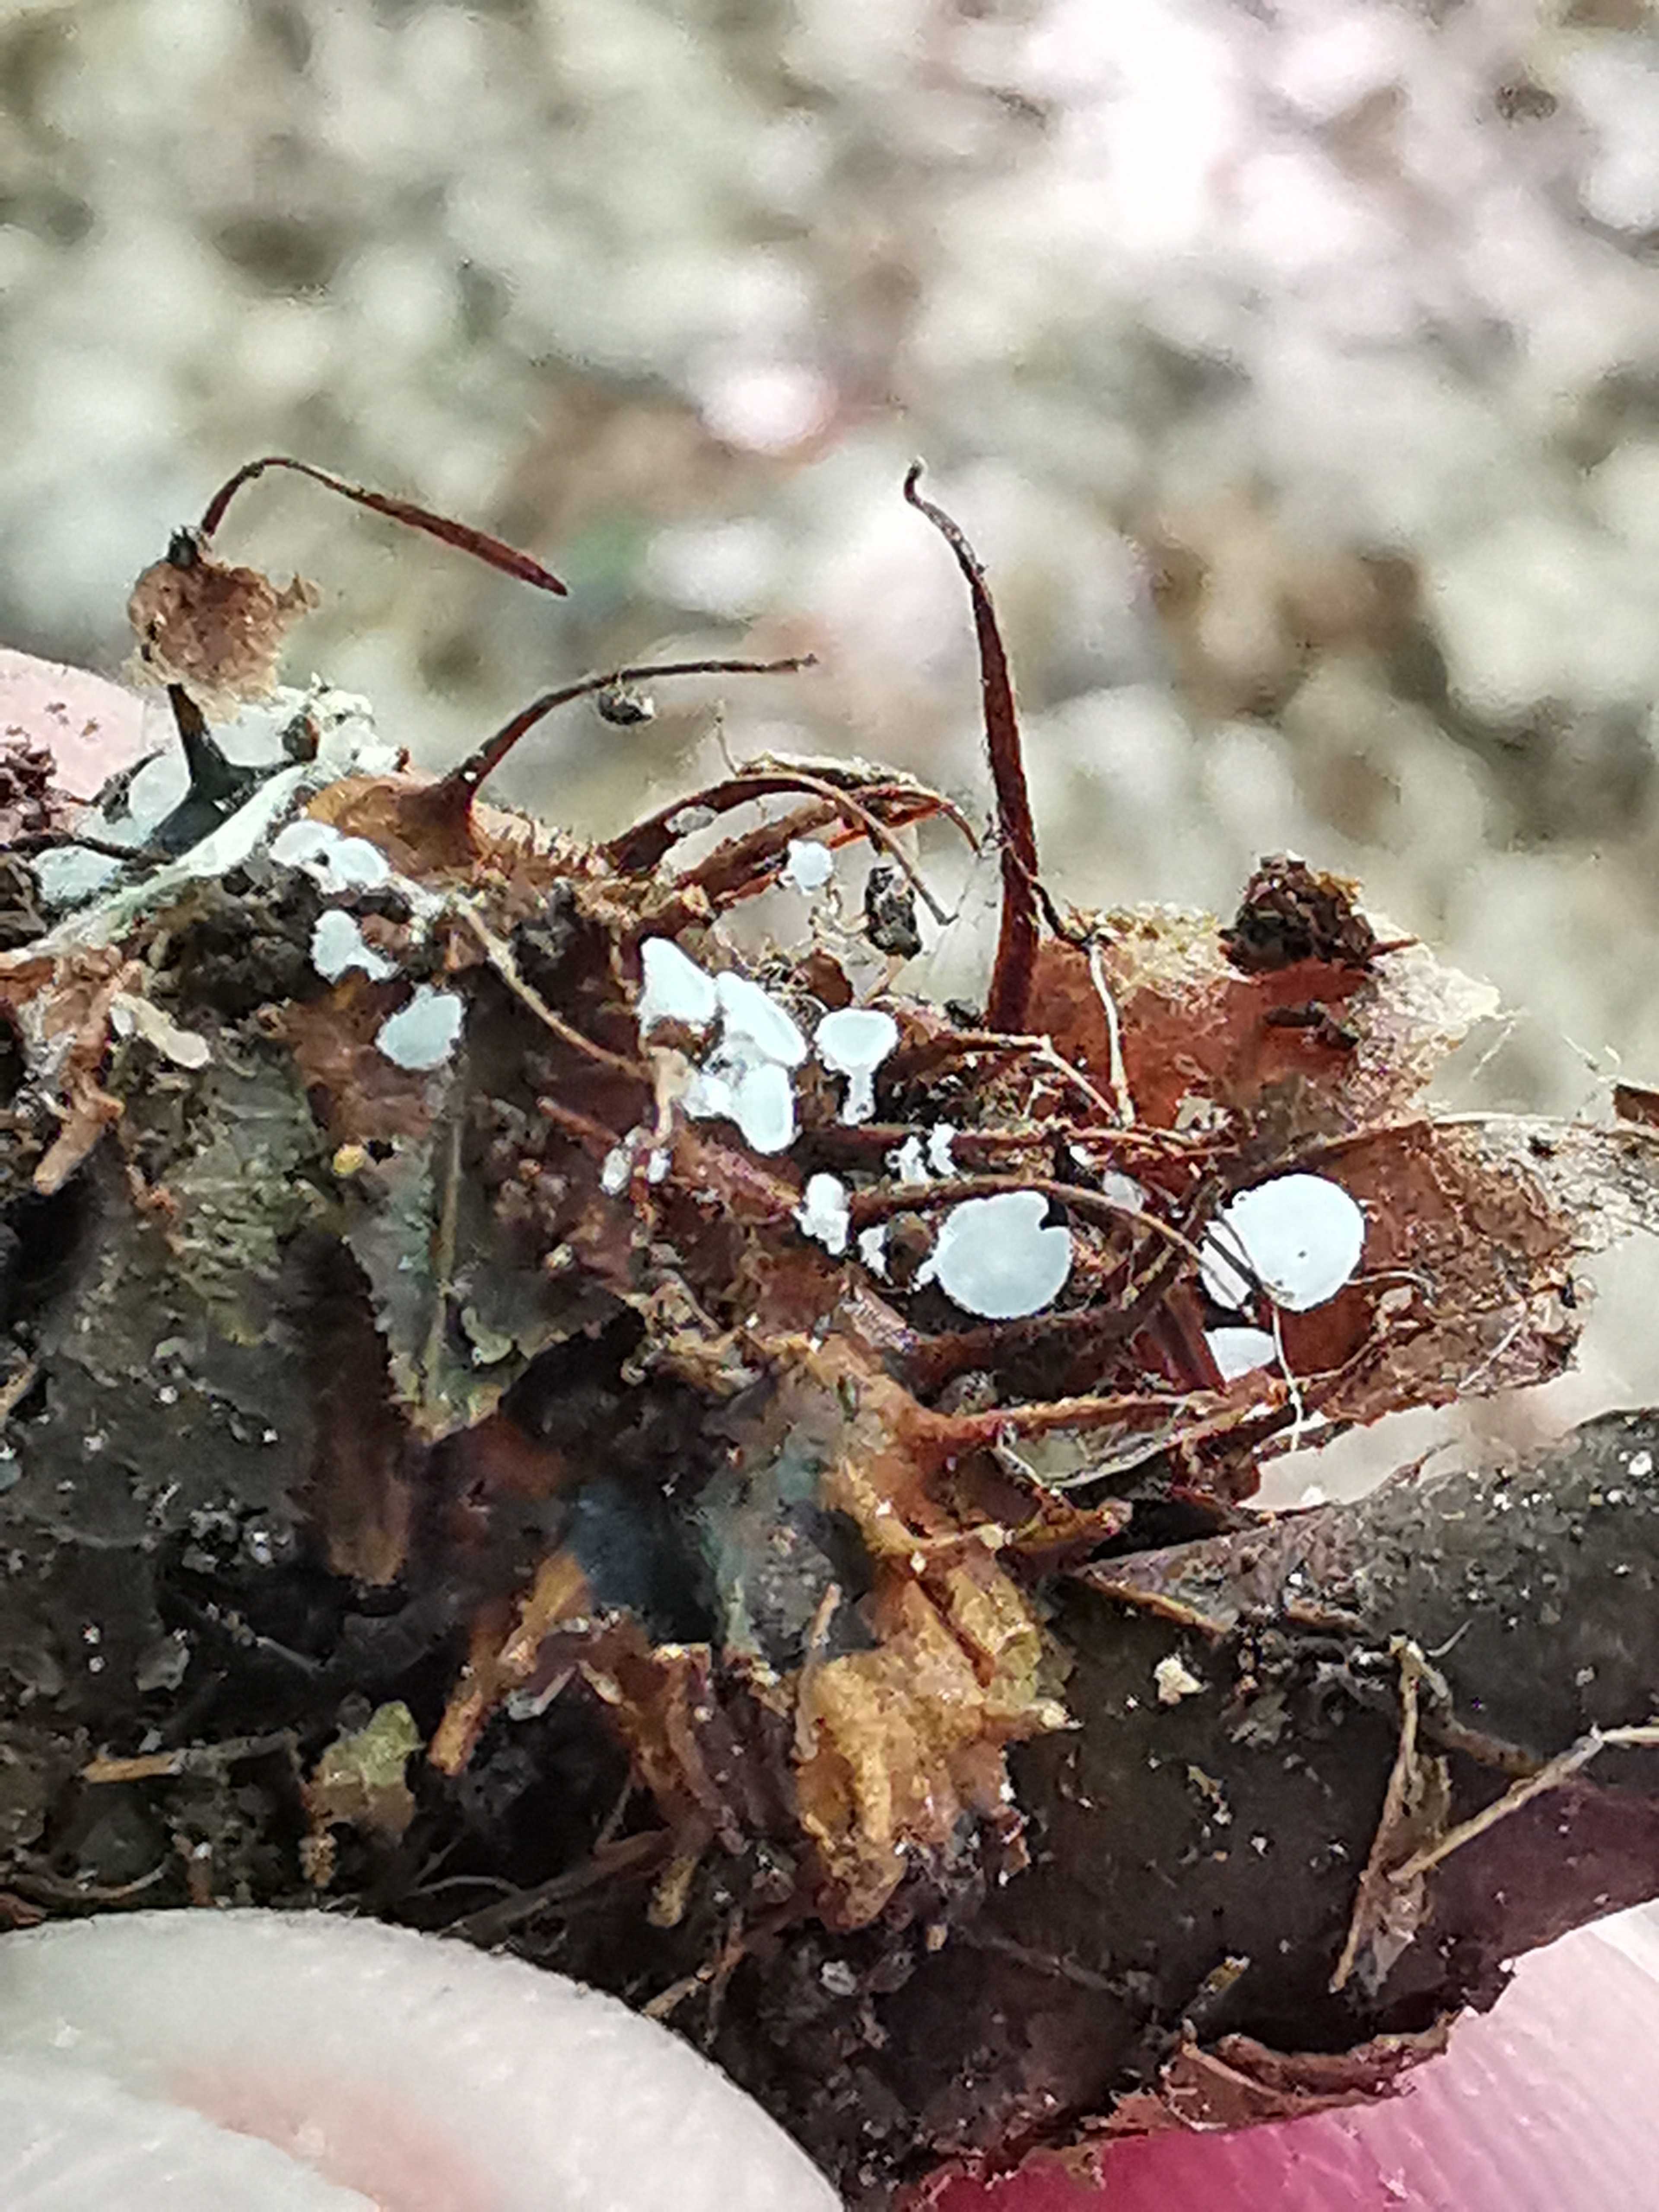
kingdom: Fungi
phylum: Ascomycota
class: Leotiomycetes
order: Helotiales
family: Lachnaceae
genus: Lachnum
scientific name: Lachnum virgineum
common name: jomfru-frynseskive
